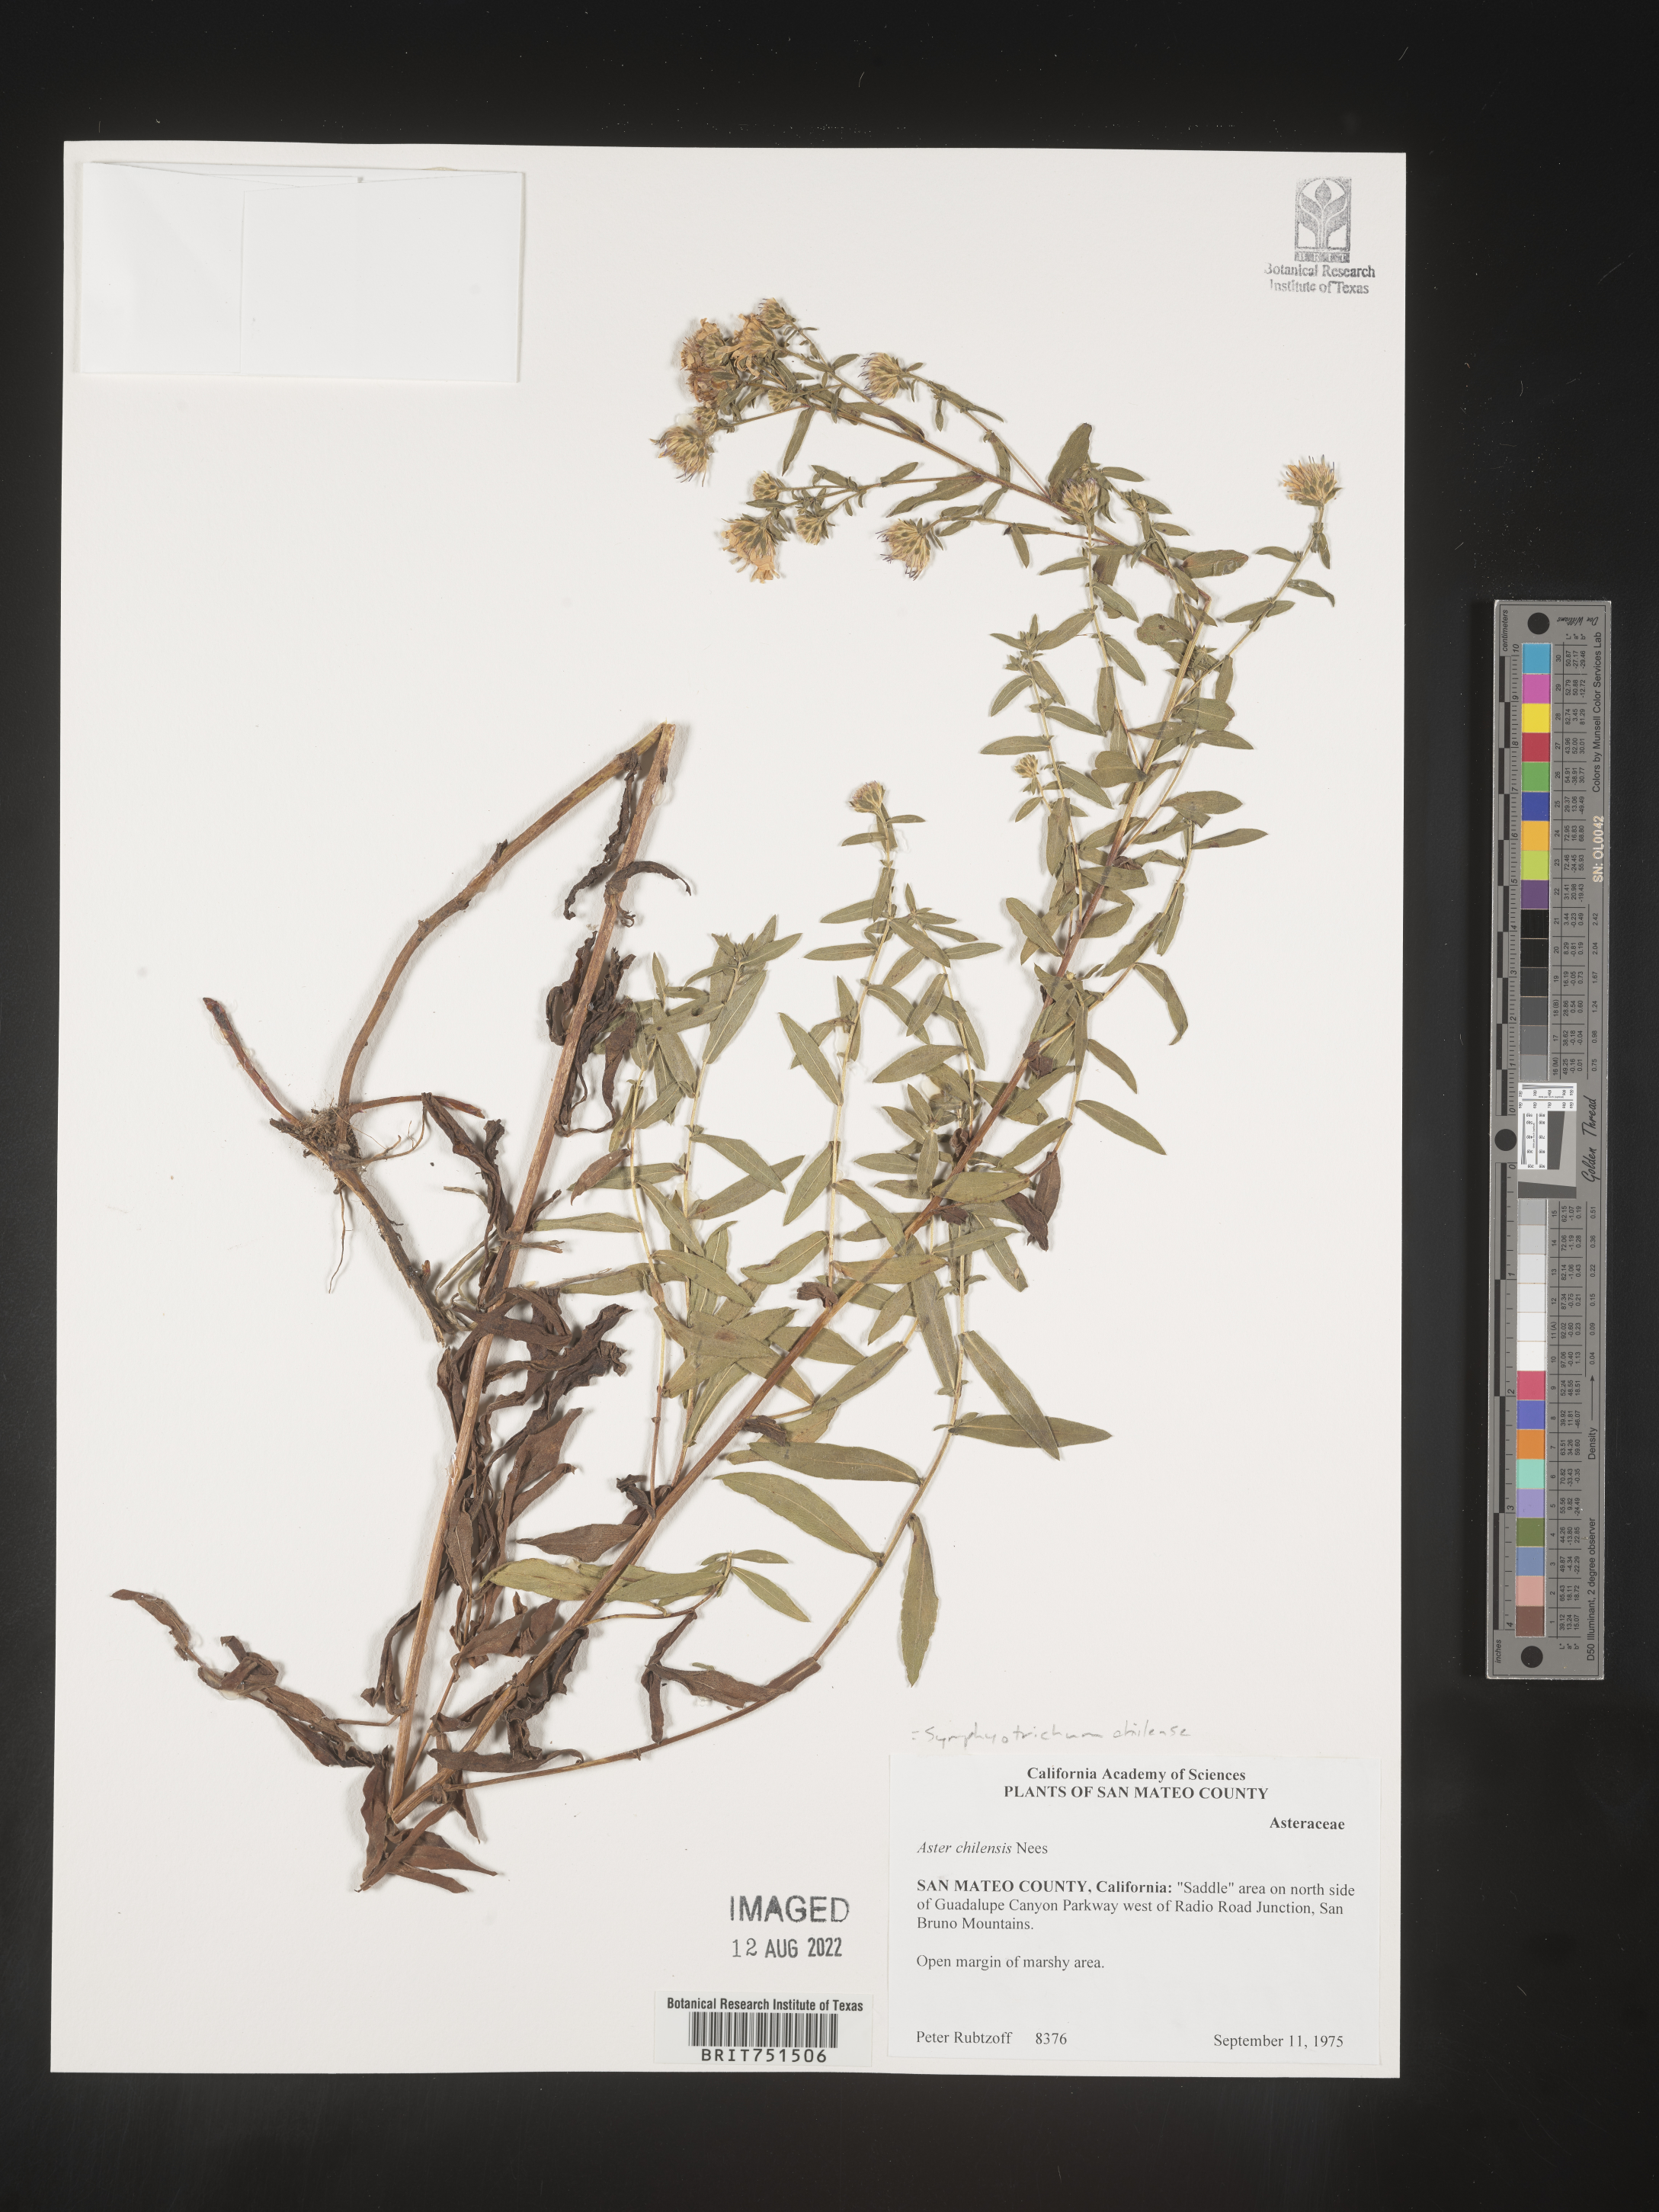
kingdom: Plantae
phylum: Tracheophyta
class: Magnoliopsida
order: Asterales
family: Asteraceae
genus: Symphyotrichum
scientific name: Symphyotrichum chilense
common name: Pacific aster
